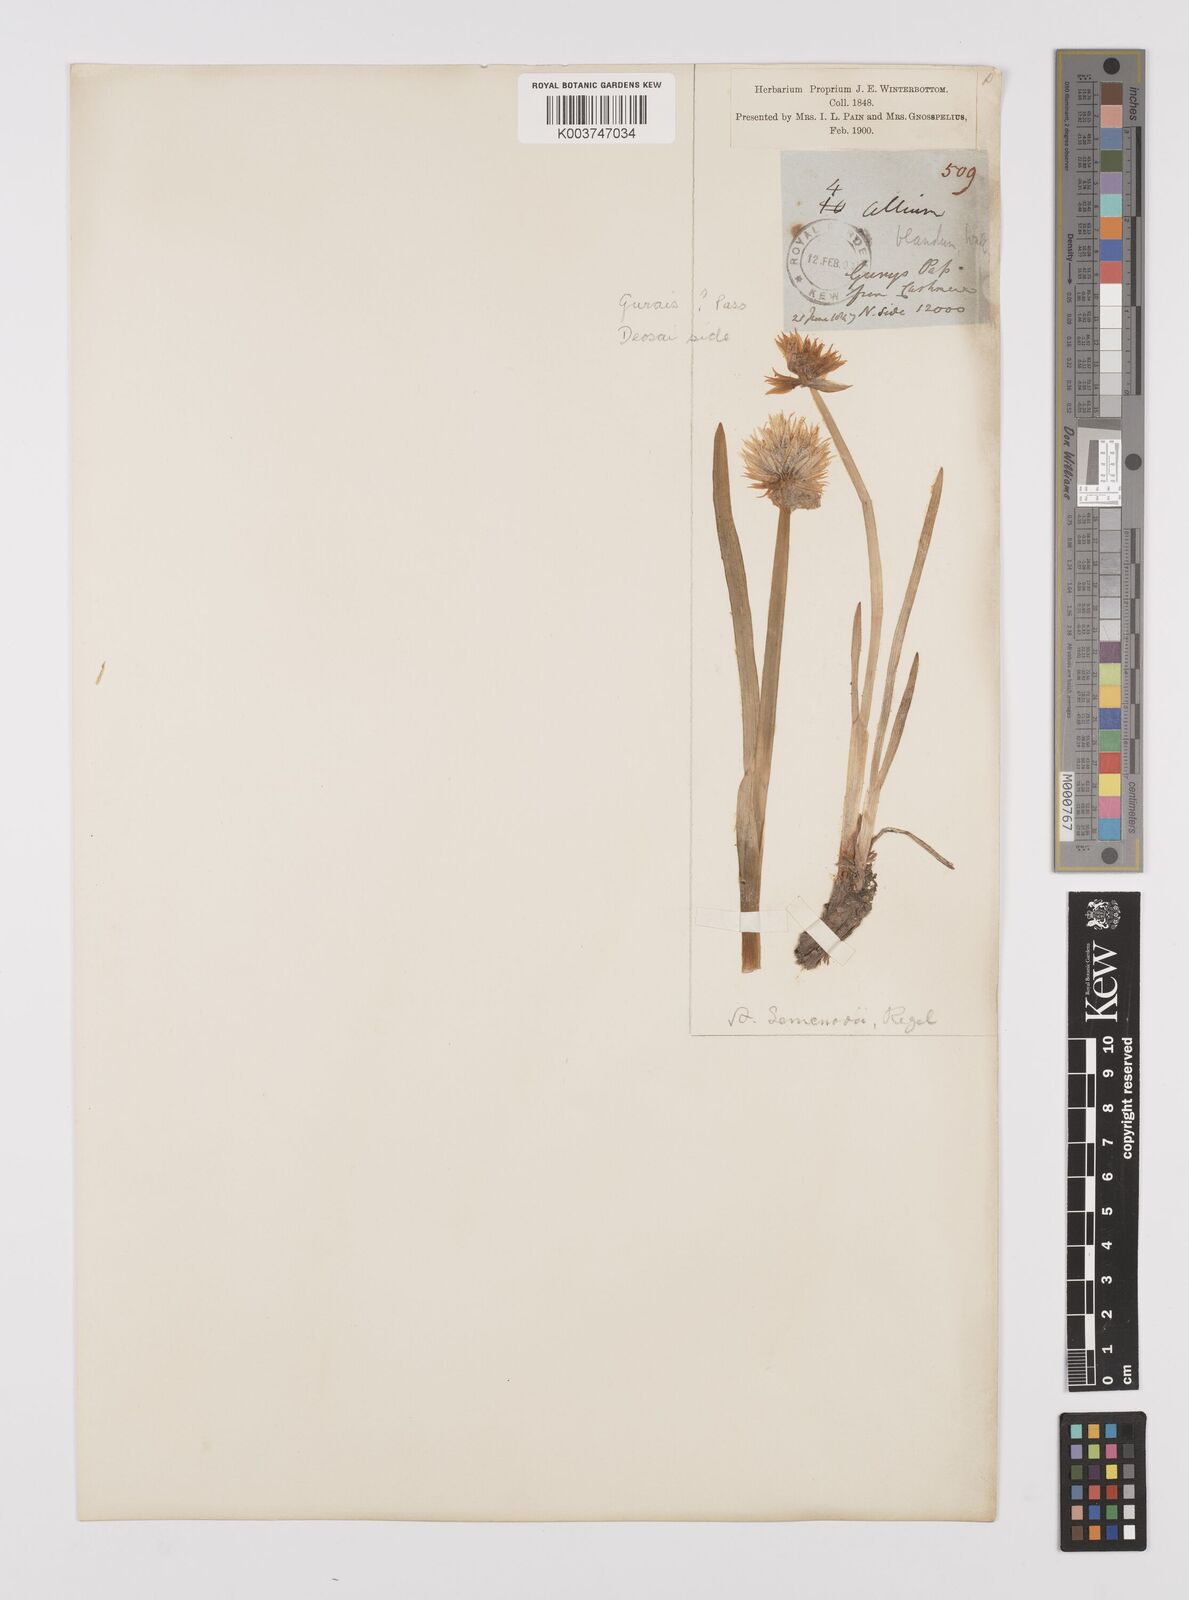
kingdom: Plantae
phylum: Tracheophyta
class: Liliopsida
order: Asparagales
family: Amaryllidaceae
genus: Allium
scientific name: Allium semenovii
